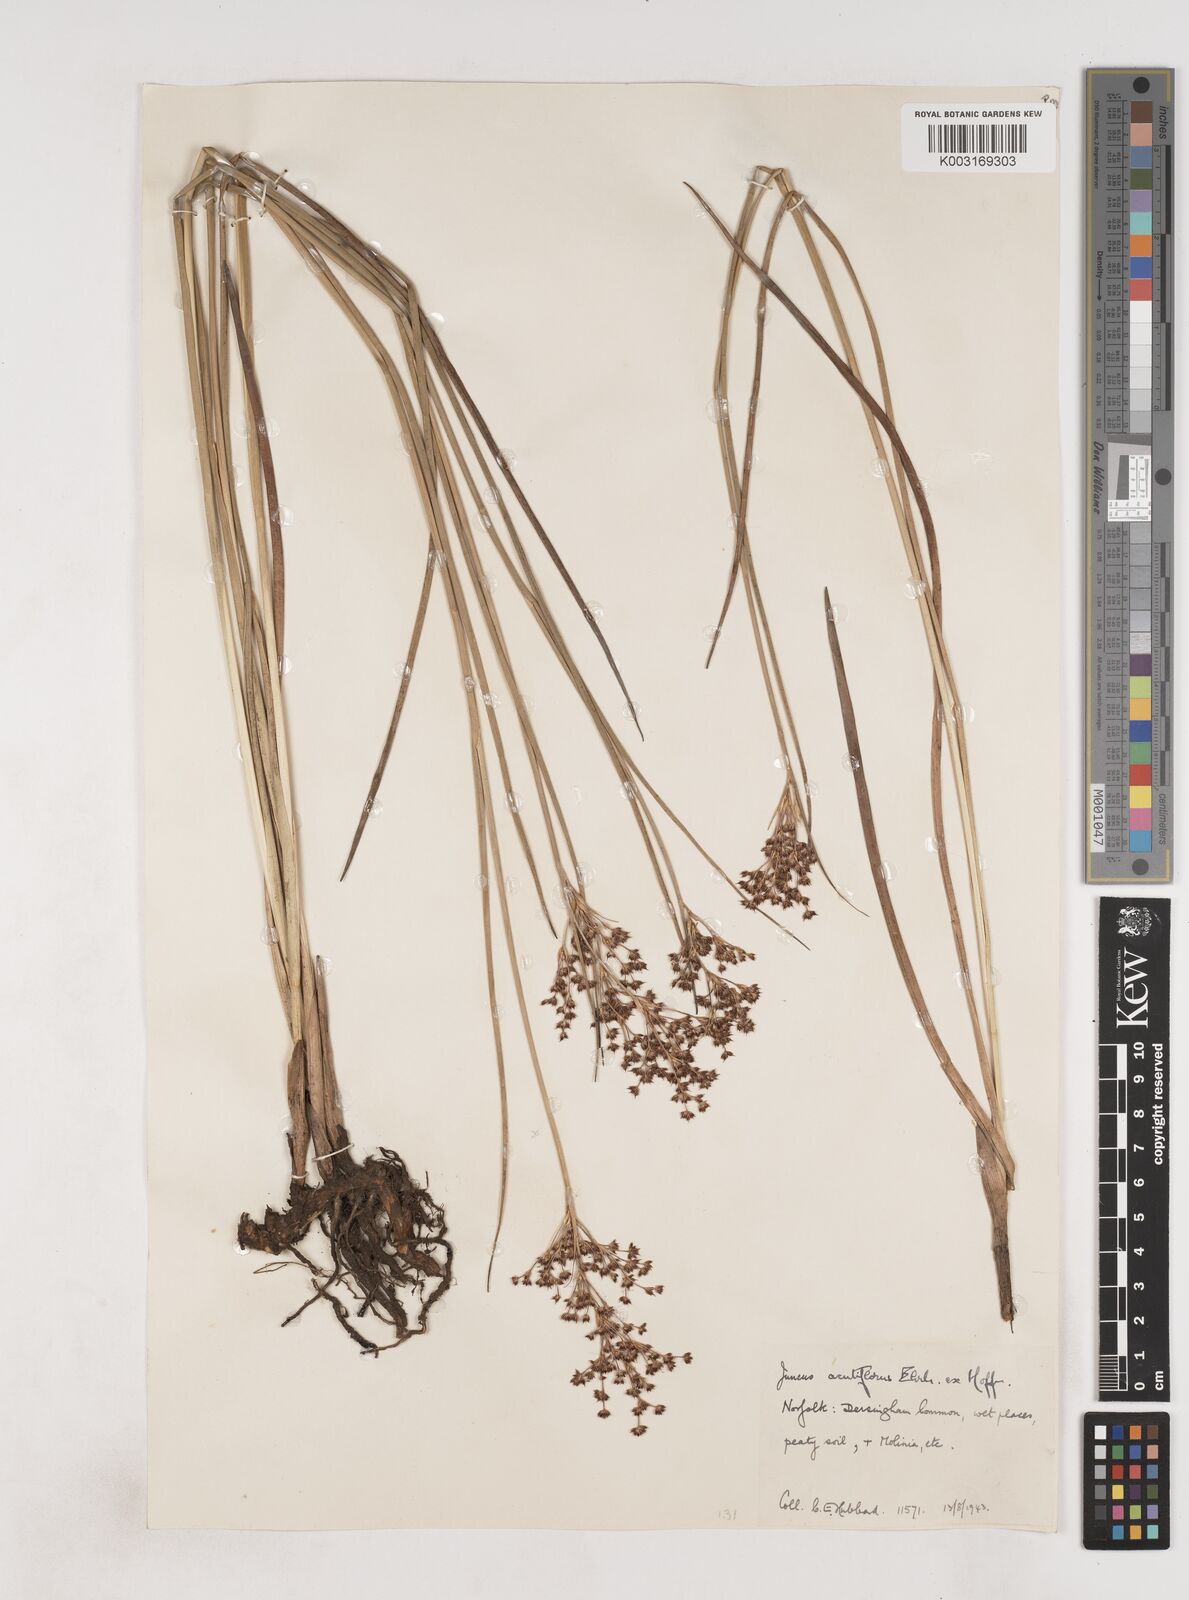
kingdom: Plantae
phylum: Tracheophyta
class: Liliopsida
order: Poales
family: Juncaceae
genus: Juncus
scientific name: Juncus acutiflorus
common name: Sharp-flowered rush
